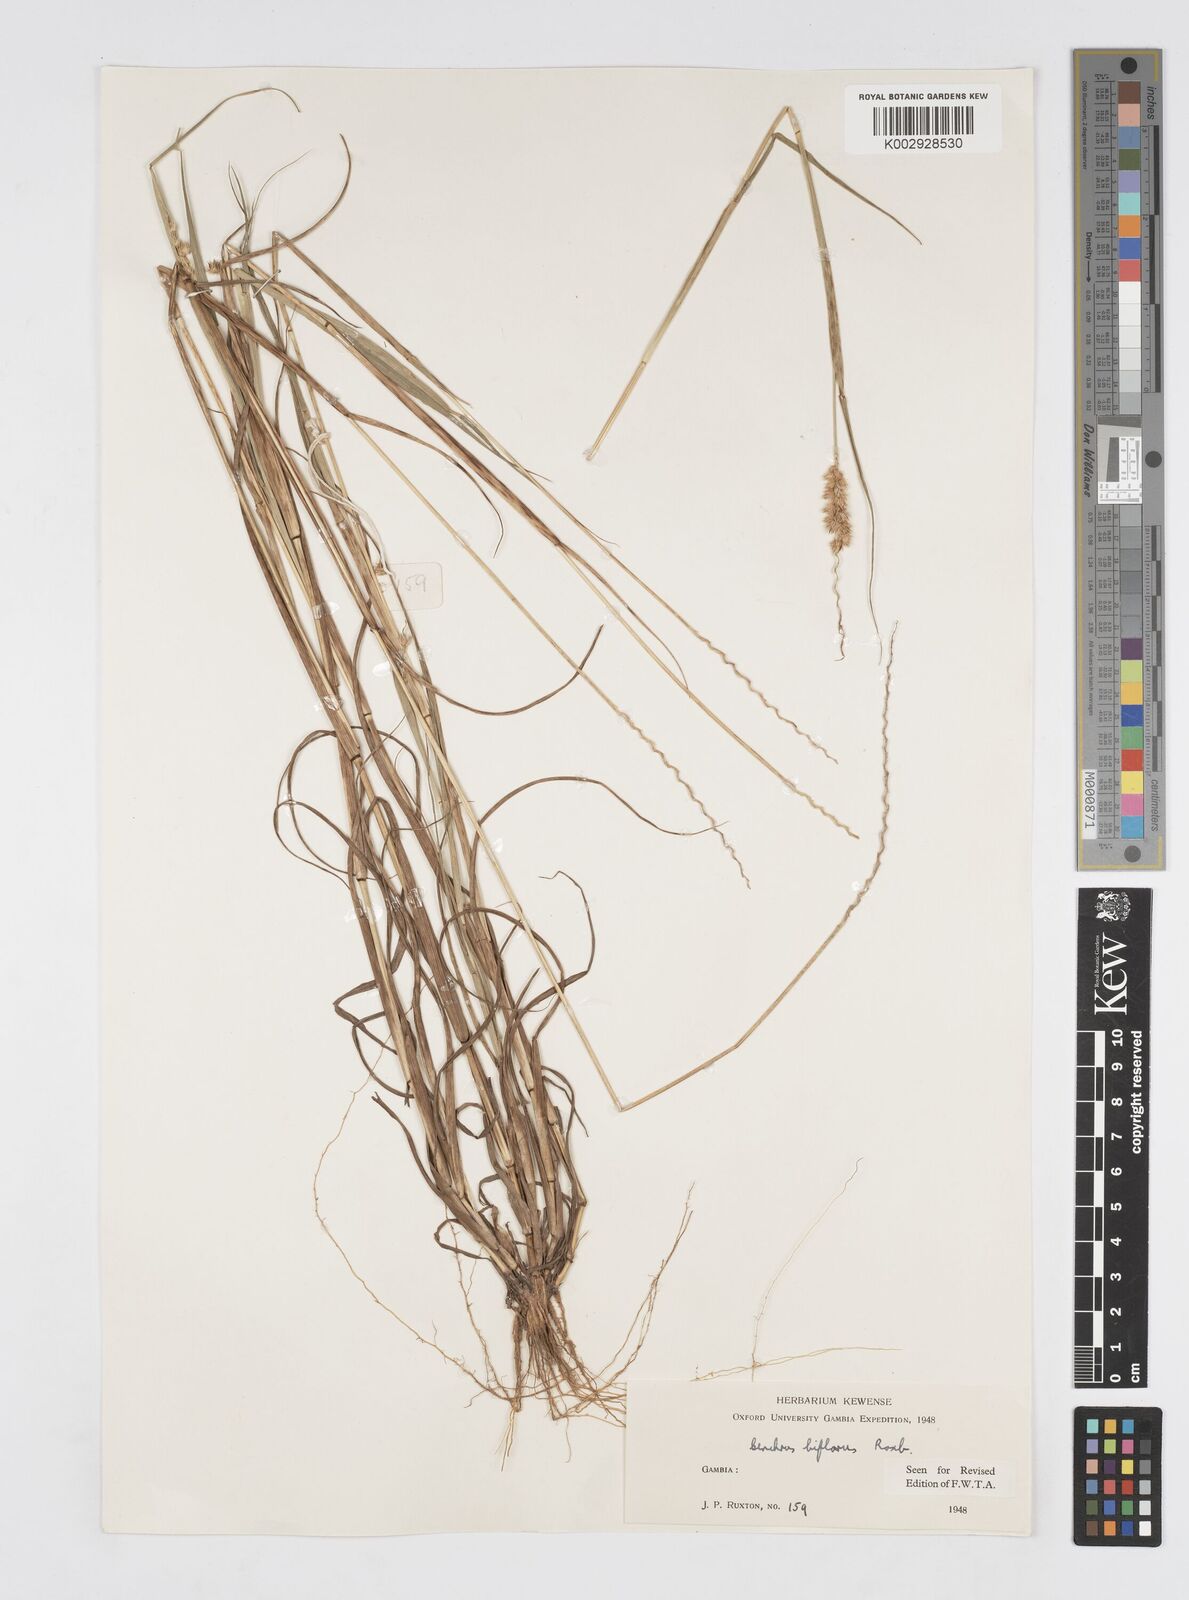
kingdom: Plantae
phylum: Tracheophyta
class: Liliopsida
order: Poales
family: Poaceae
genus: Cenchrus
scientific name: Cenchrus biflorus
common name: Indian sandbur
